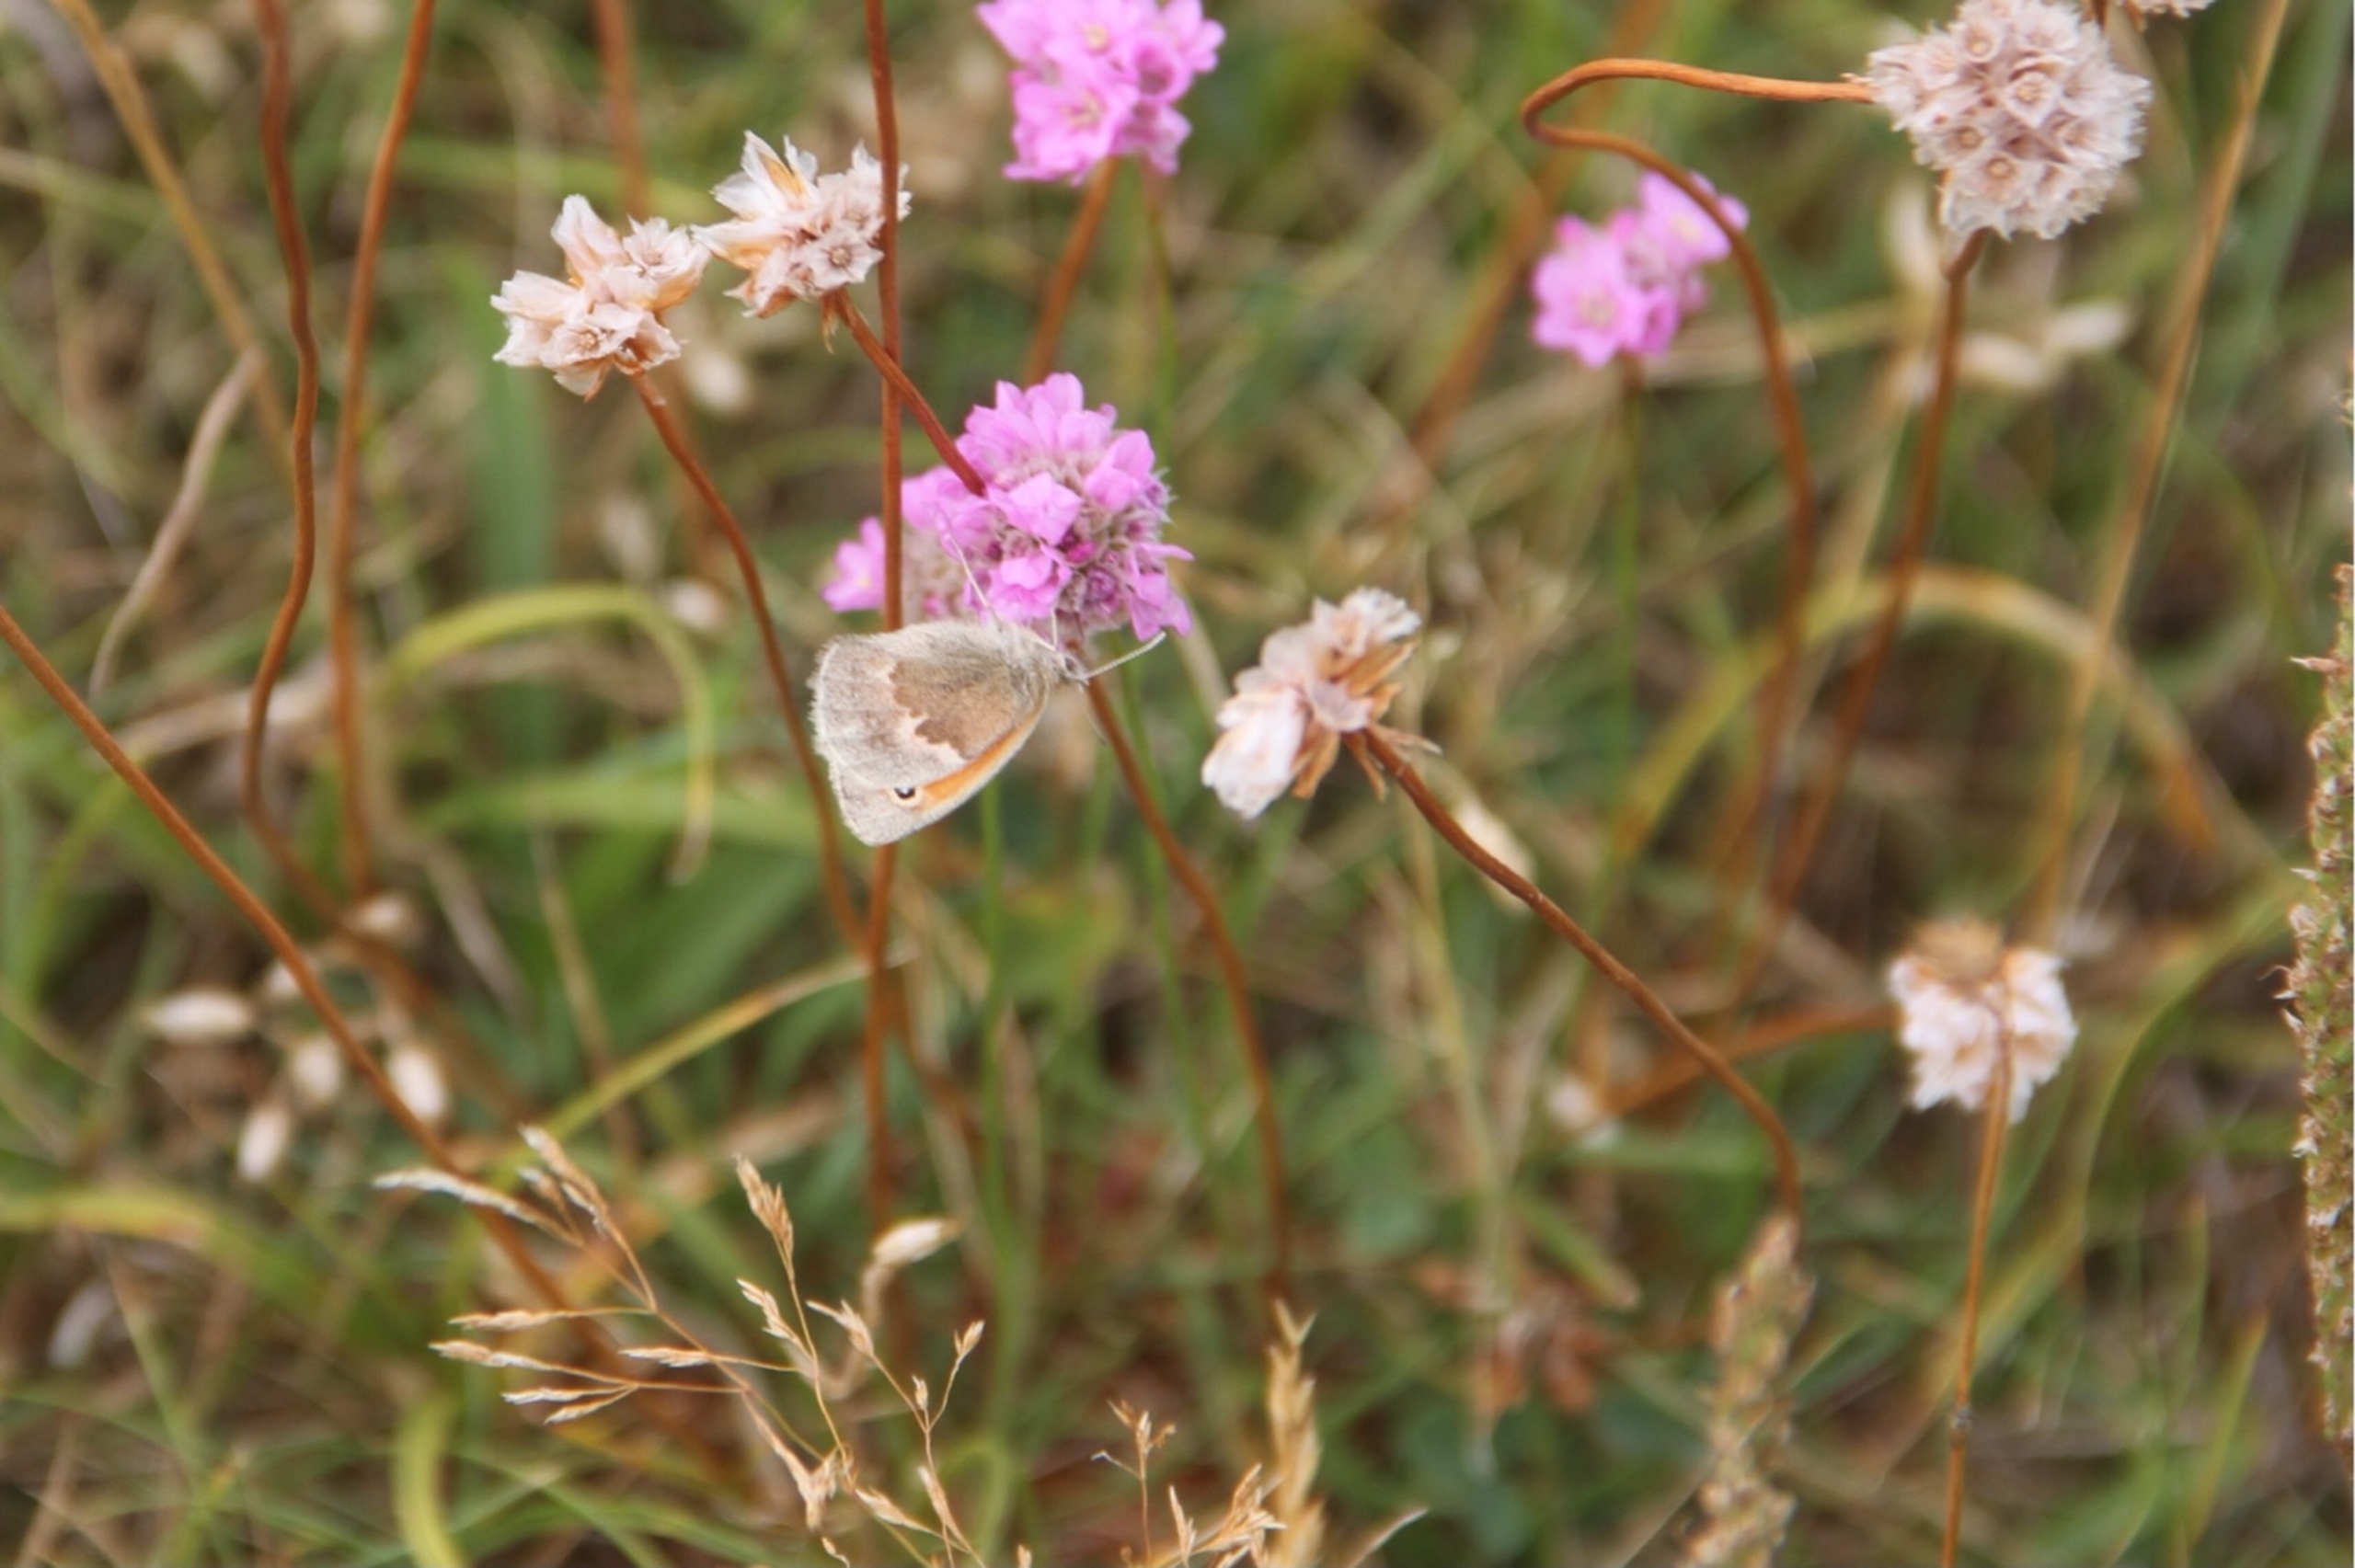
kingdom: Animalia
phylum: Arthropoda
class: Insecta
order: Lepidoptera
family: Nymphalidae
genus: Coenonympha
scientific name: Coenonympha pamphilus
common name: Okkergul randøje
